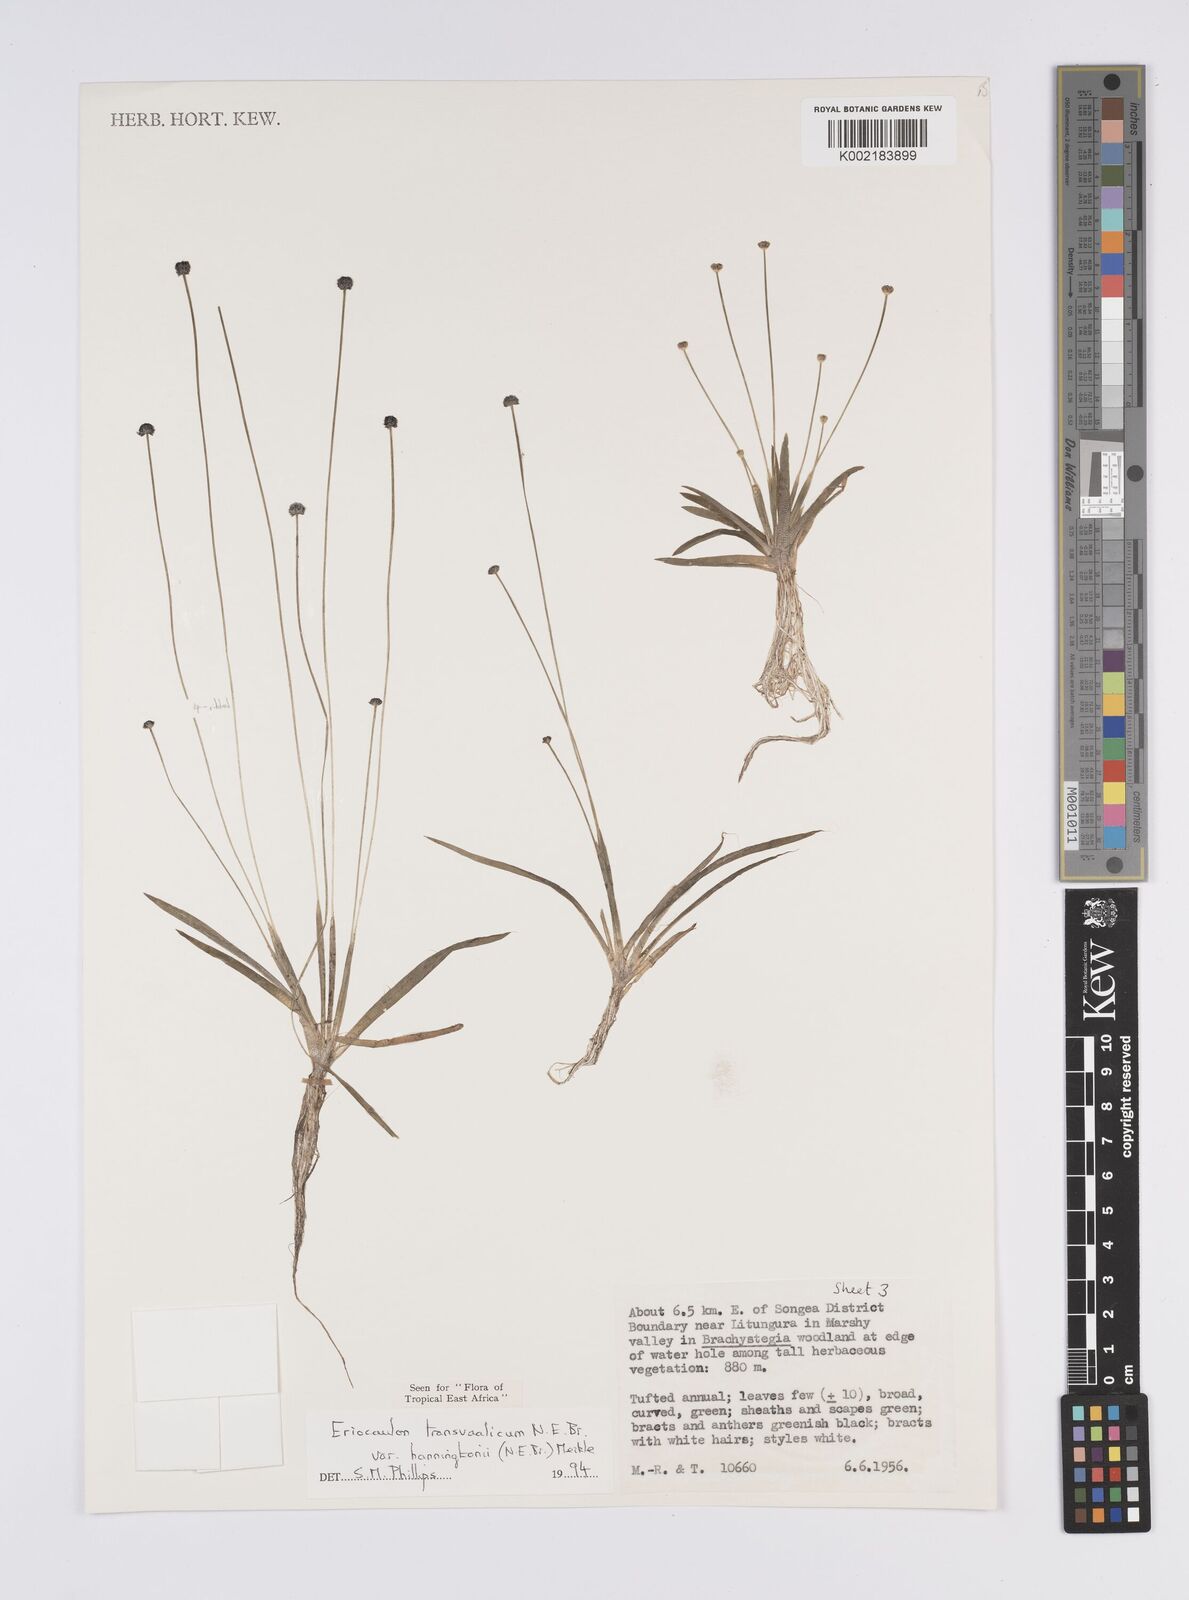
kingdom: Plantae
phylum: Tracheophyta
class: Liliopsida
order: Poales
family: Eriocaulaceae
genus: Eriocaulon
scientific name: Eriocaulon transvaalicum
